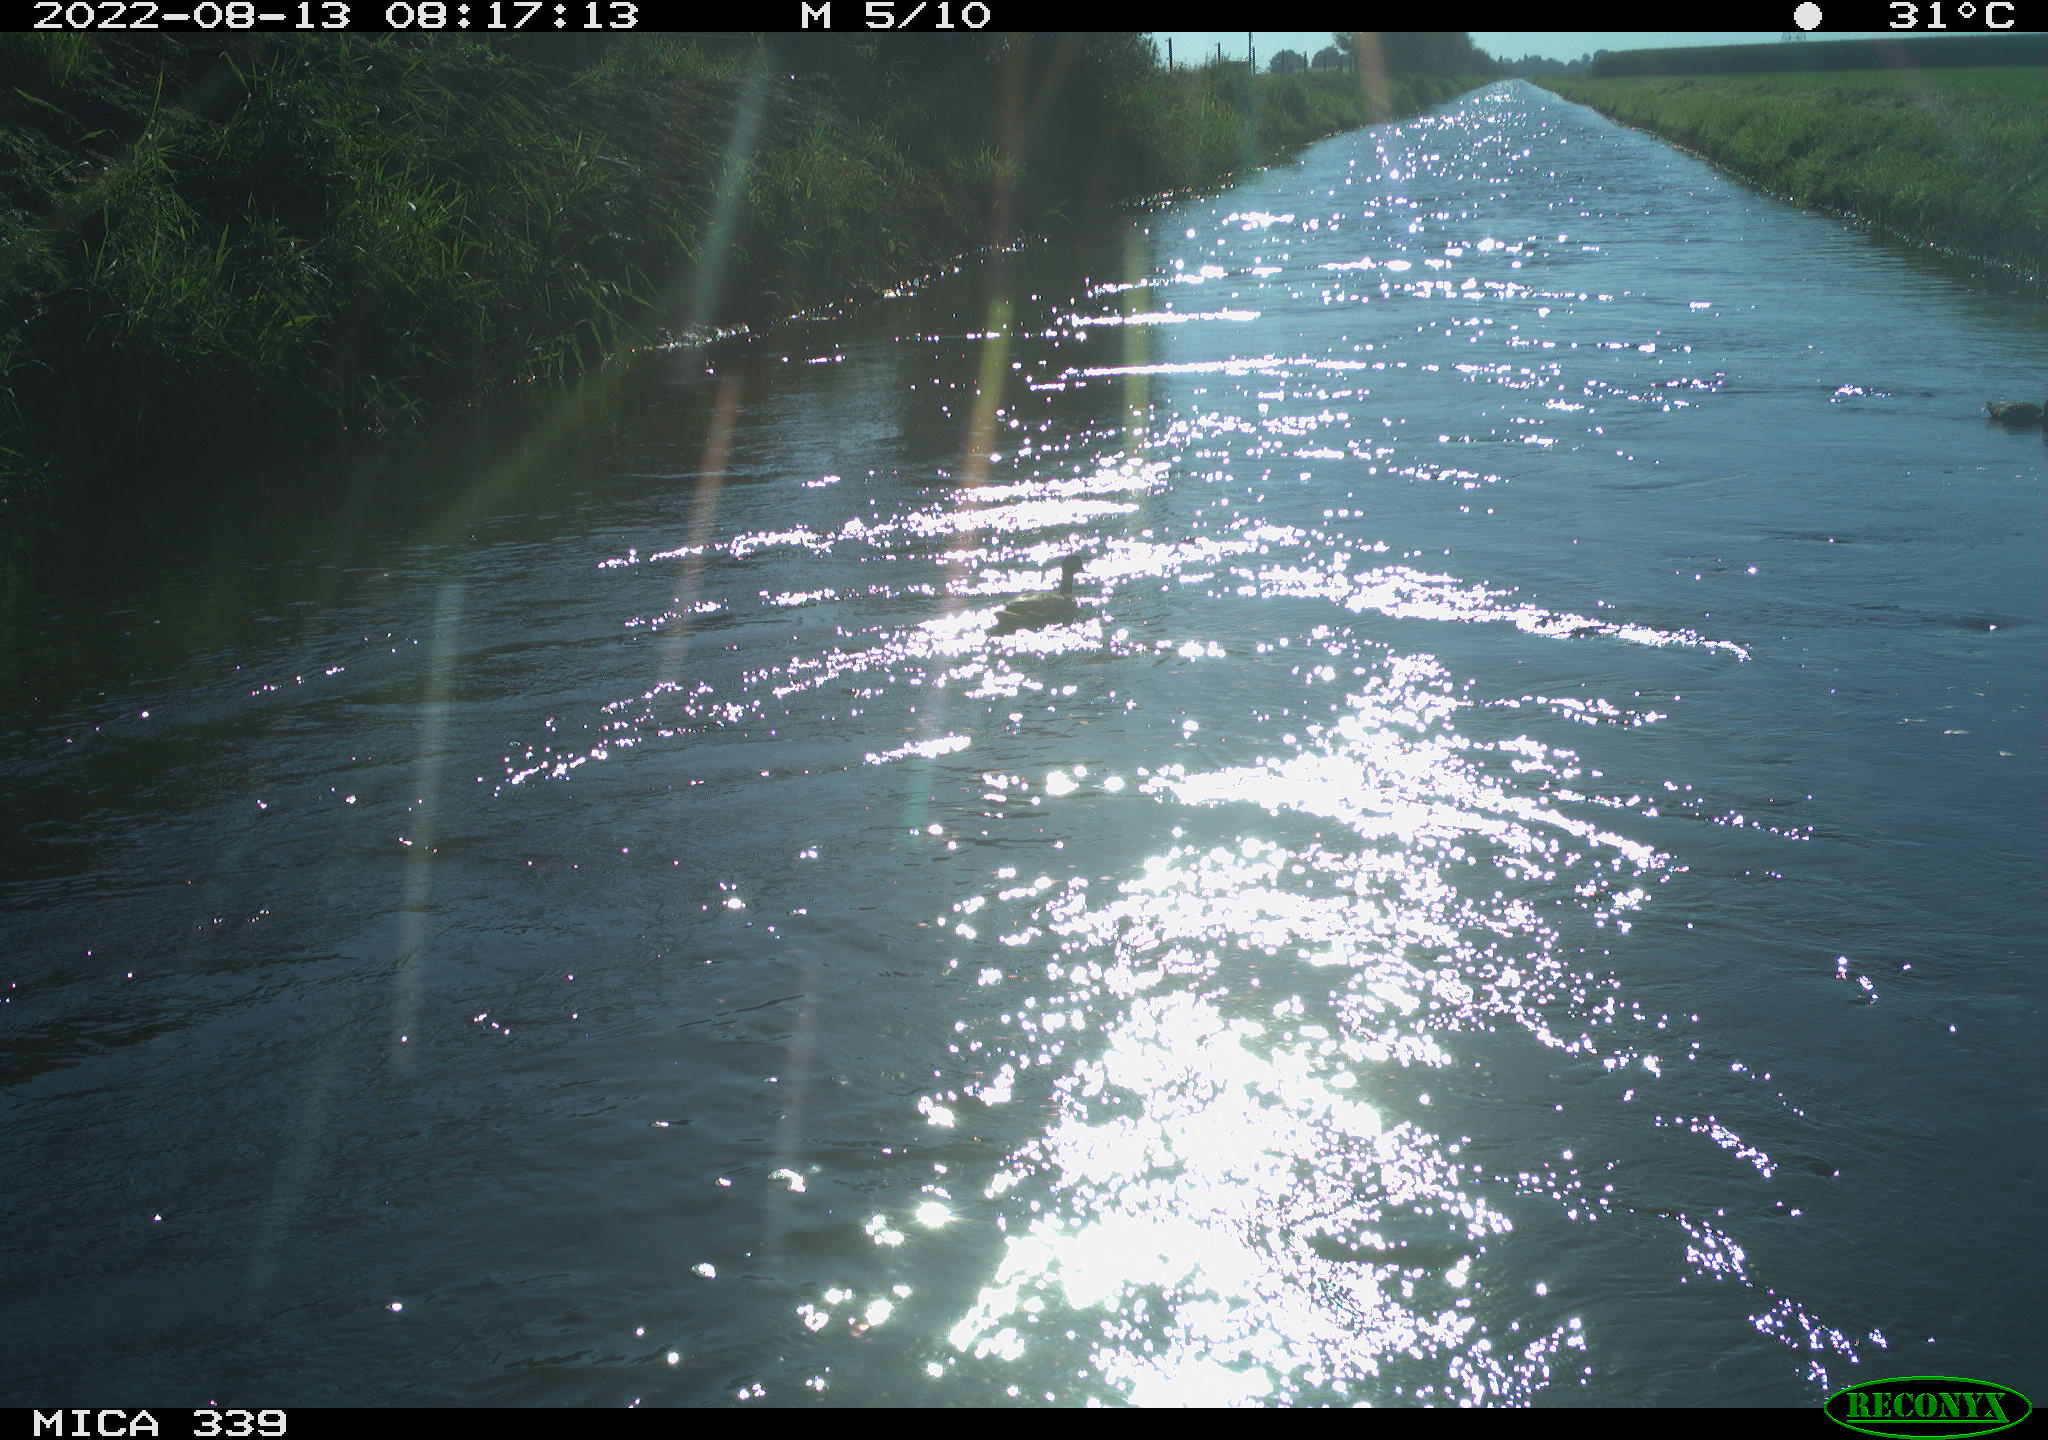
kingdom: Animalia
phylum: Chordata
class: Aves
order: Anseriformes
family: Anatidae
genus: Anas
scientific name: Anas platyrhynchos
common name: Mallard
